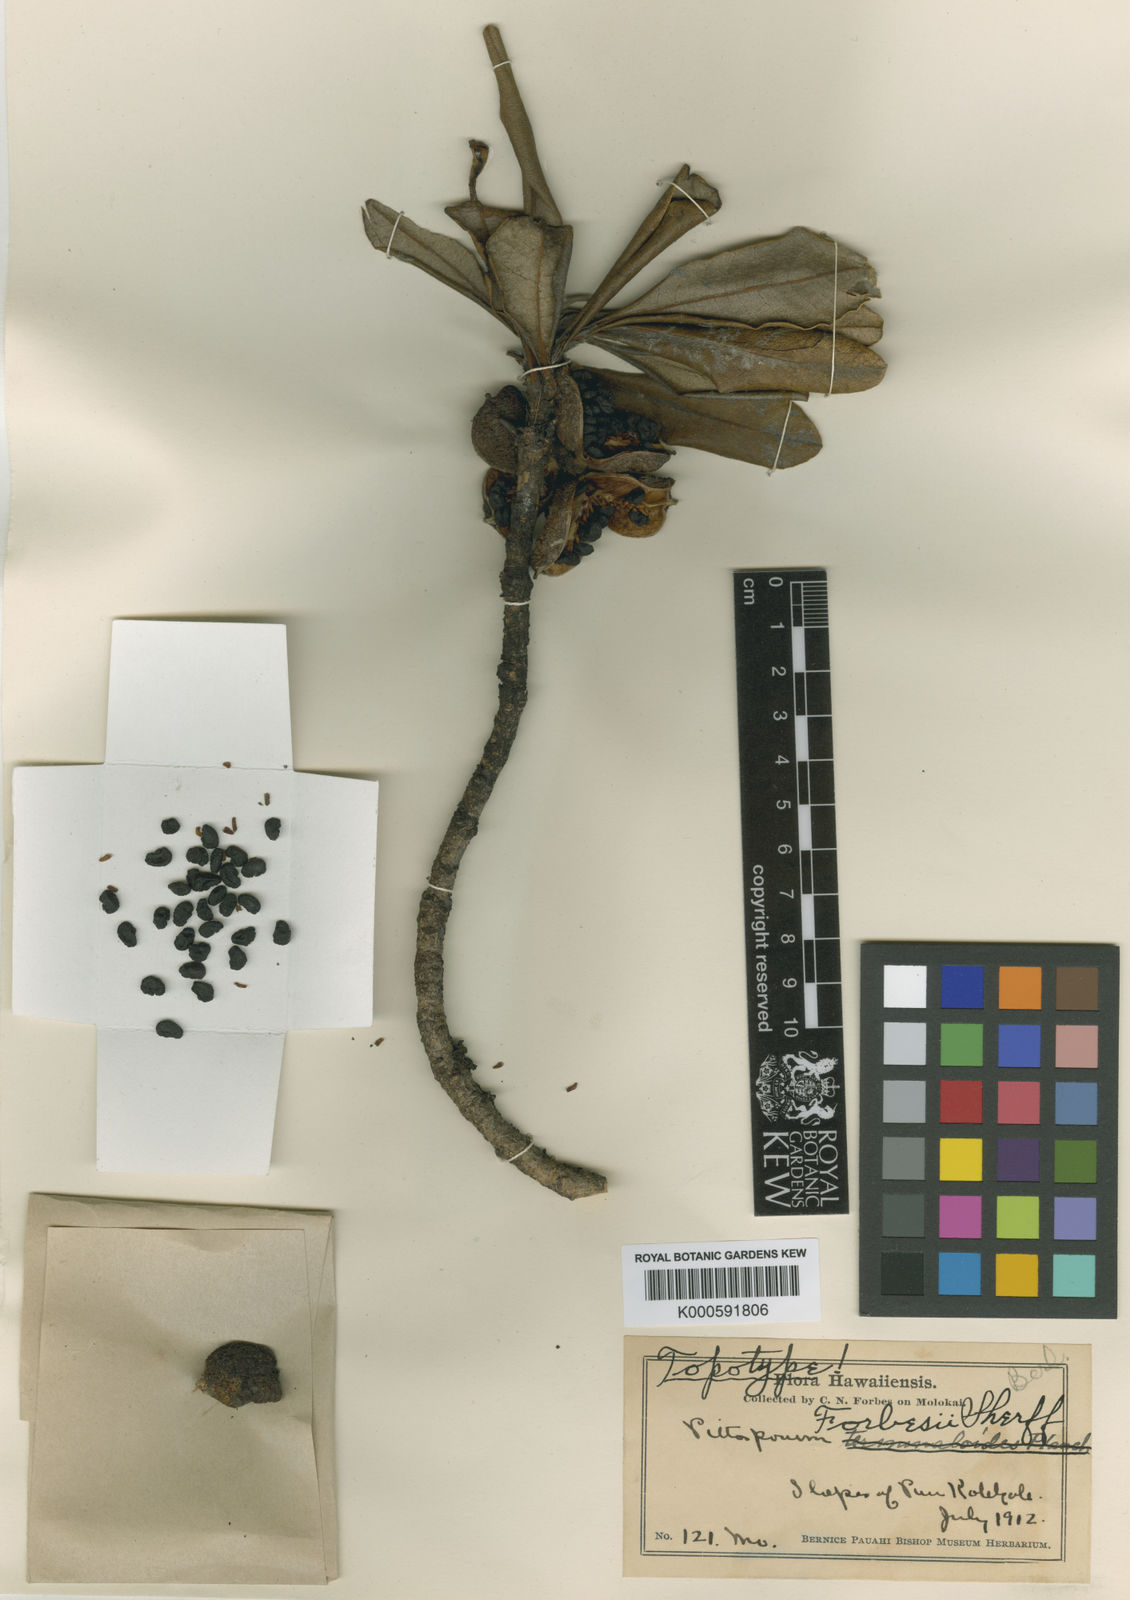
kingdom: Plantae
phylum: Tracheophyta
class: Magnoliopsida
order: Apiales
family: Pittosporaceae
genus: Pittosporum
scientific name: Pittosporum argentifolium
